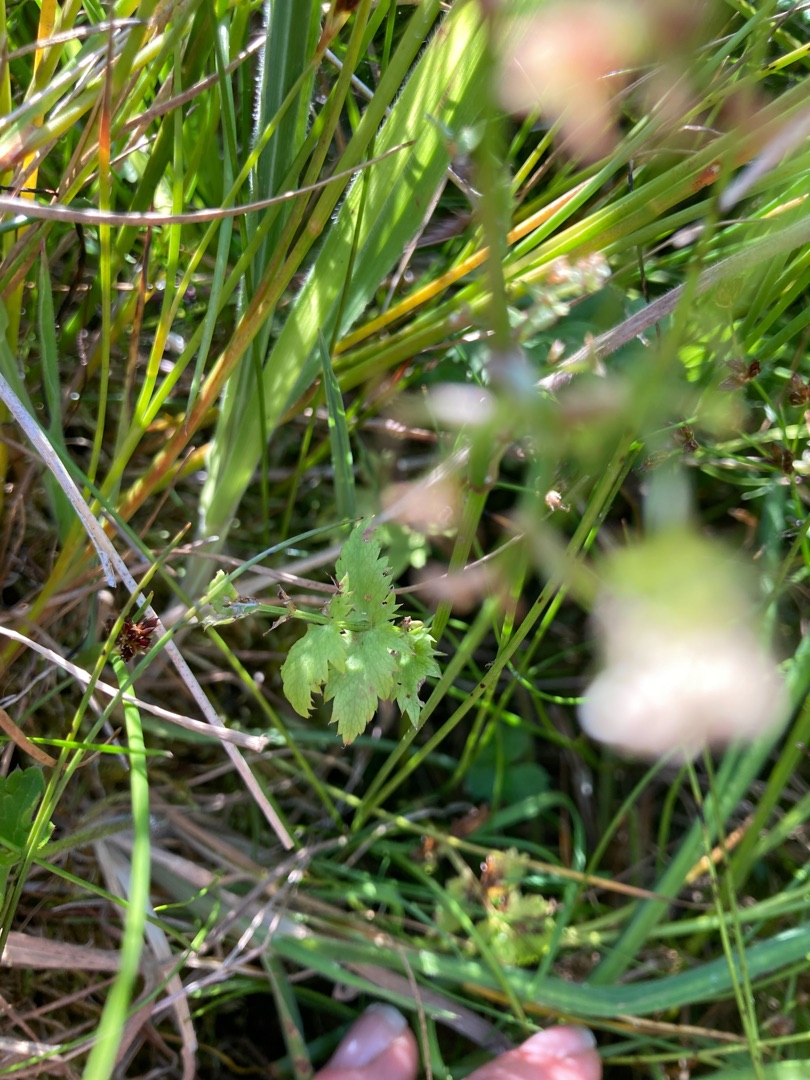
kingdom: Plantae
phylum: Tracheophyta
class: Magnoliopsida
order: Apiales
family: Apiaceae
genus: Berula
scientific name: Berula erecta
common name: Sideskærm
